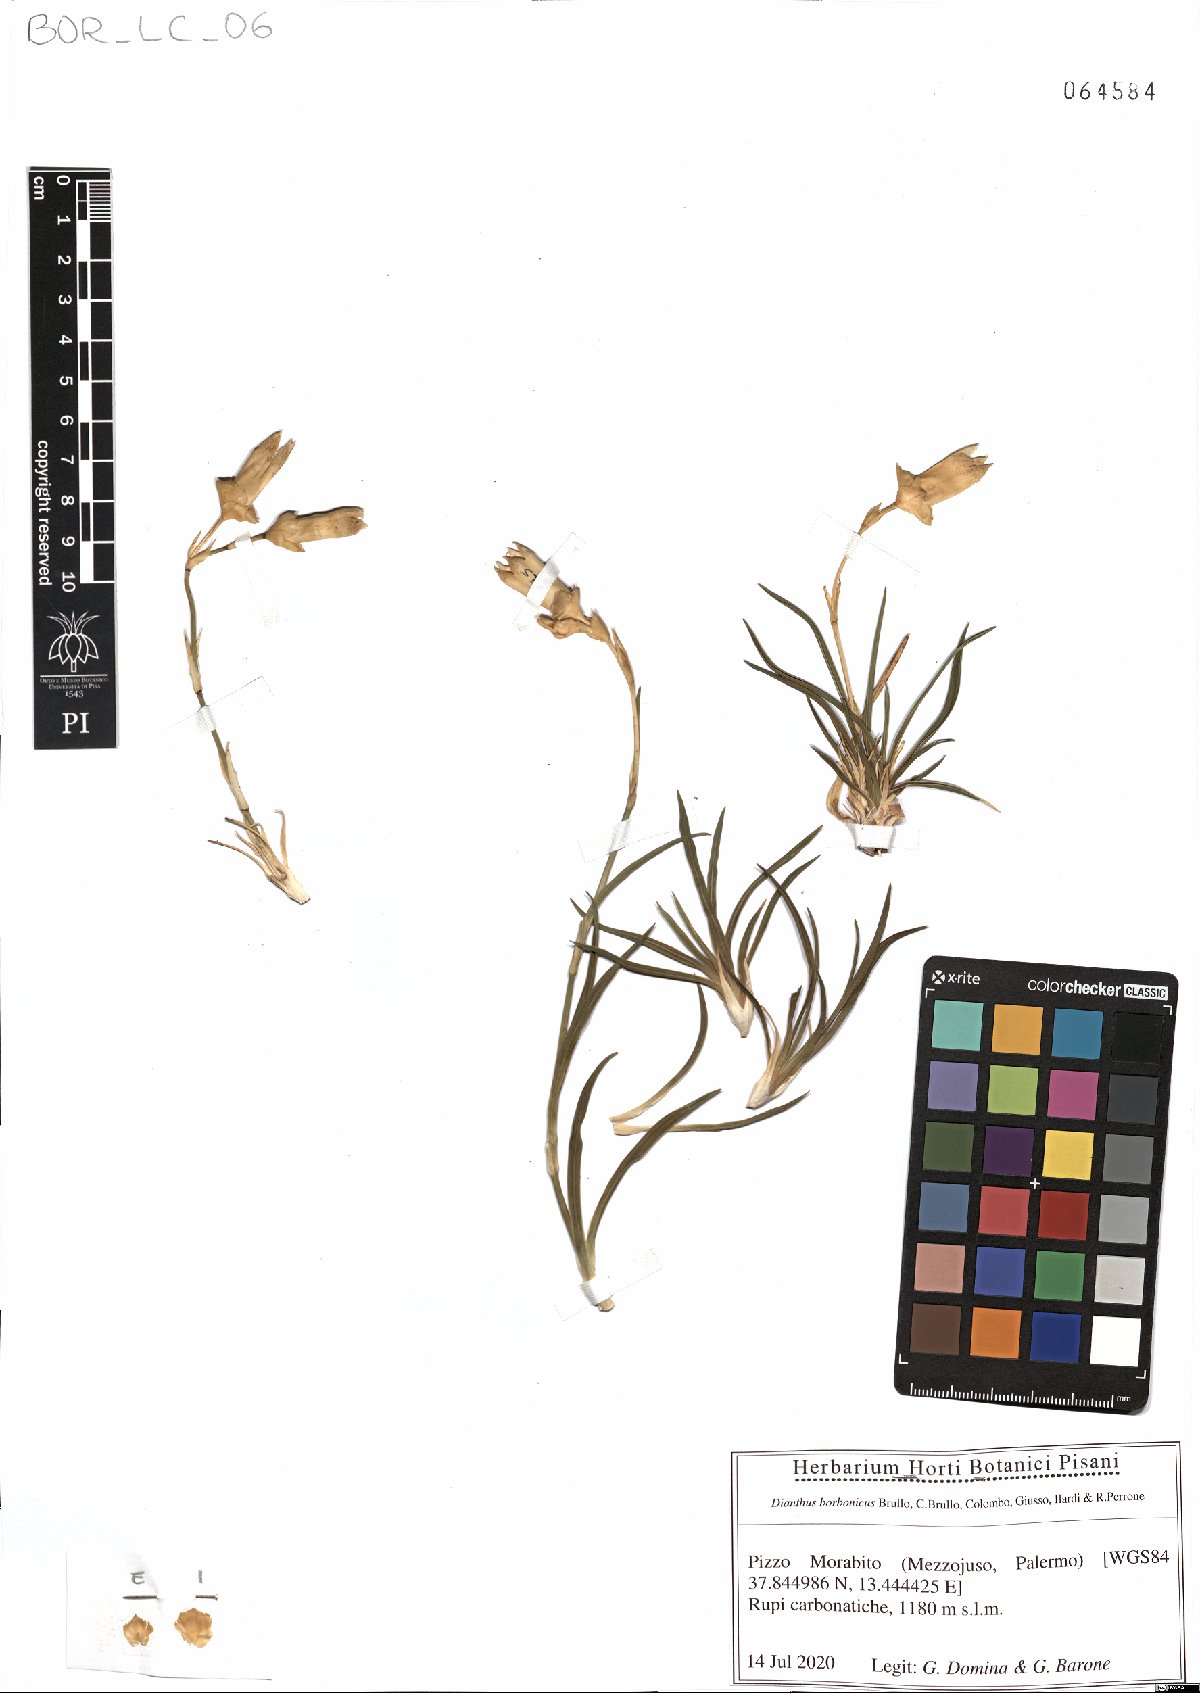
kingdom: Plantae
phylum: Tracheophyta
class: Magnoliopsida
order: Caryophyllales
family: Caryophyllaceae
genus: Dianthus
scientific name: Dianthus borbonicus
